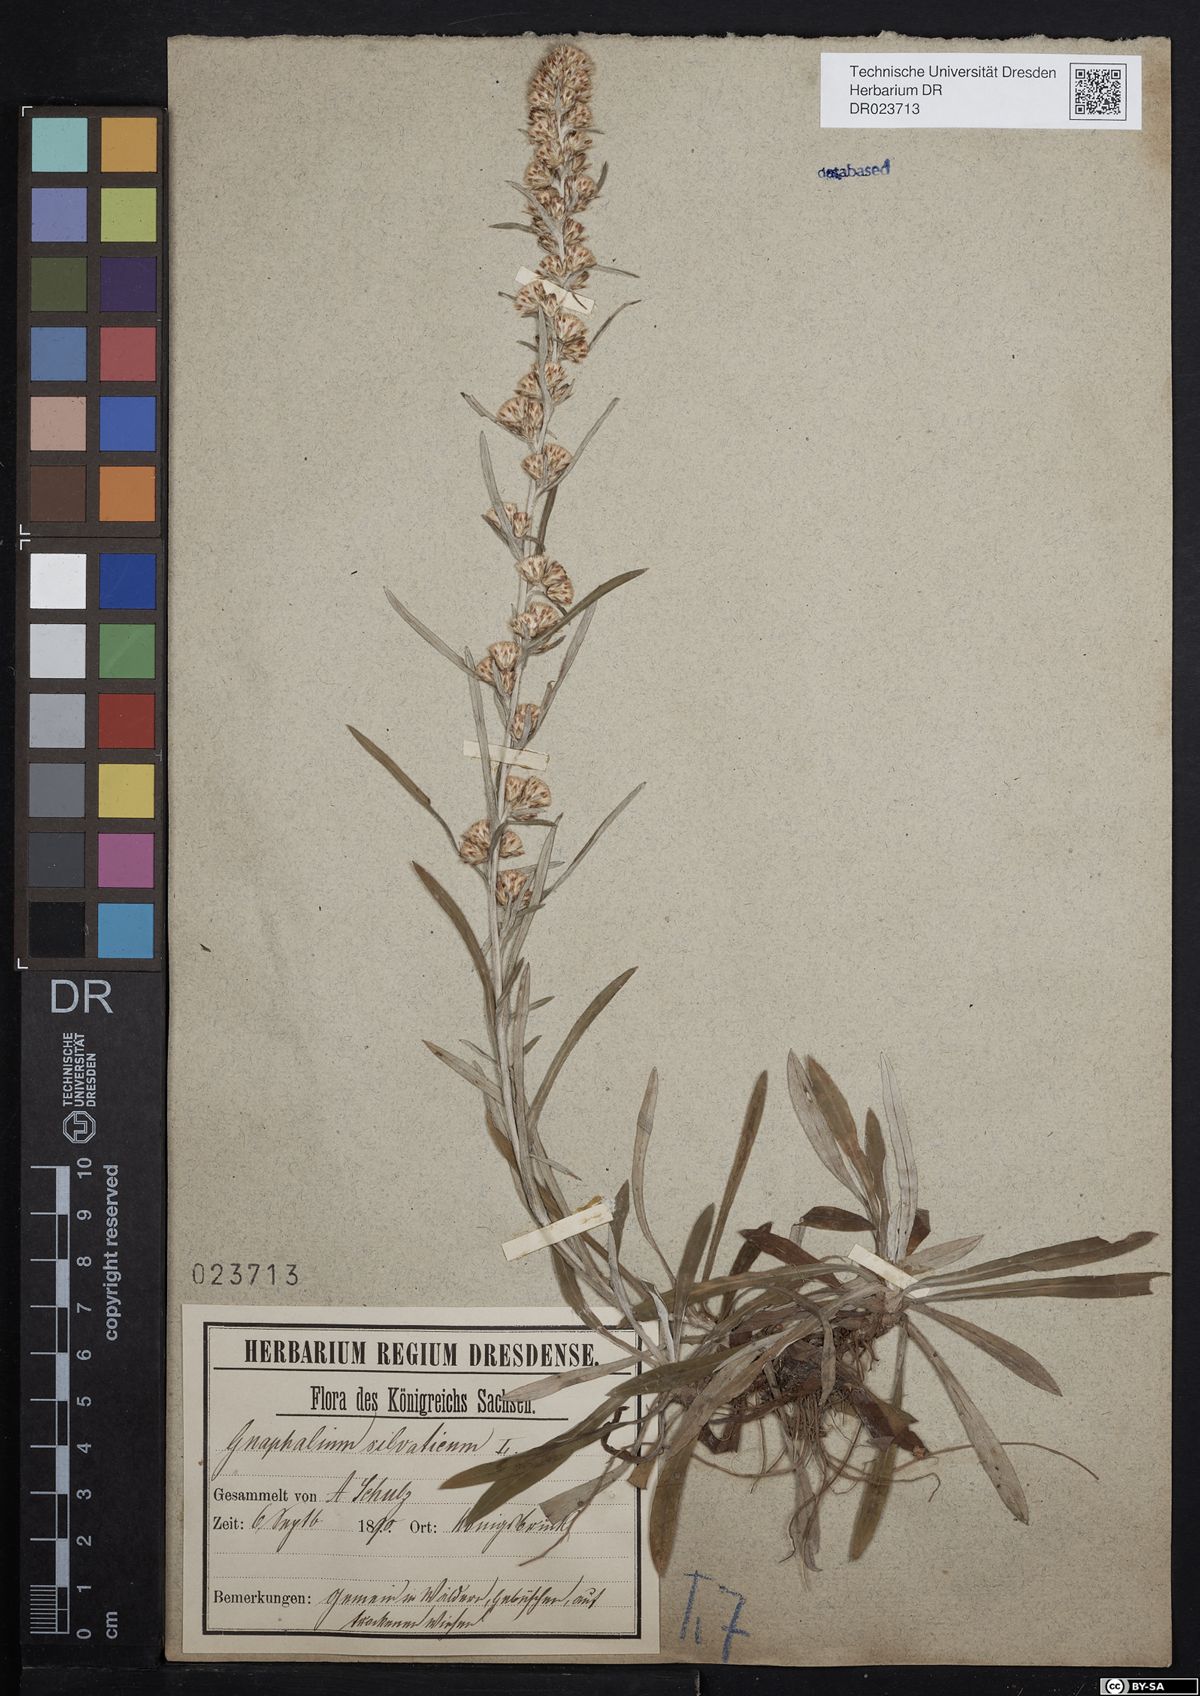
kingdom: Plantae
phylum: Tracheophyta
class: Magnoliopsida
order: Asterales
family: Asteraceae
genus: Omalotheca
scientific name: Omalotheca sylvatica
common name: Heath cudweed
